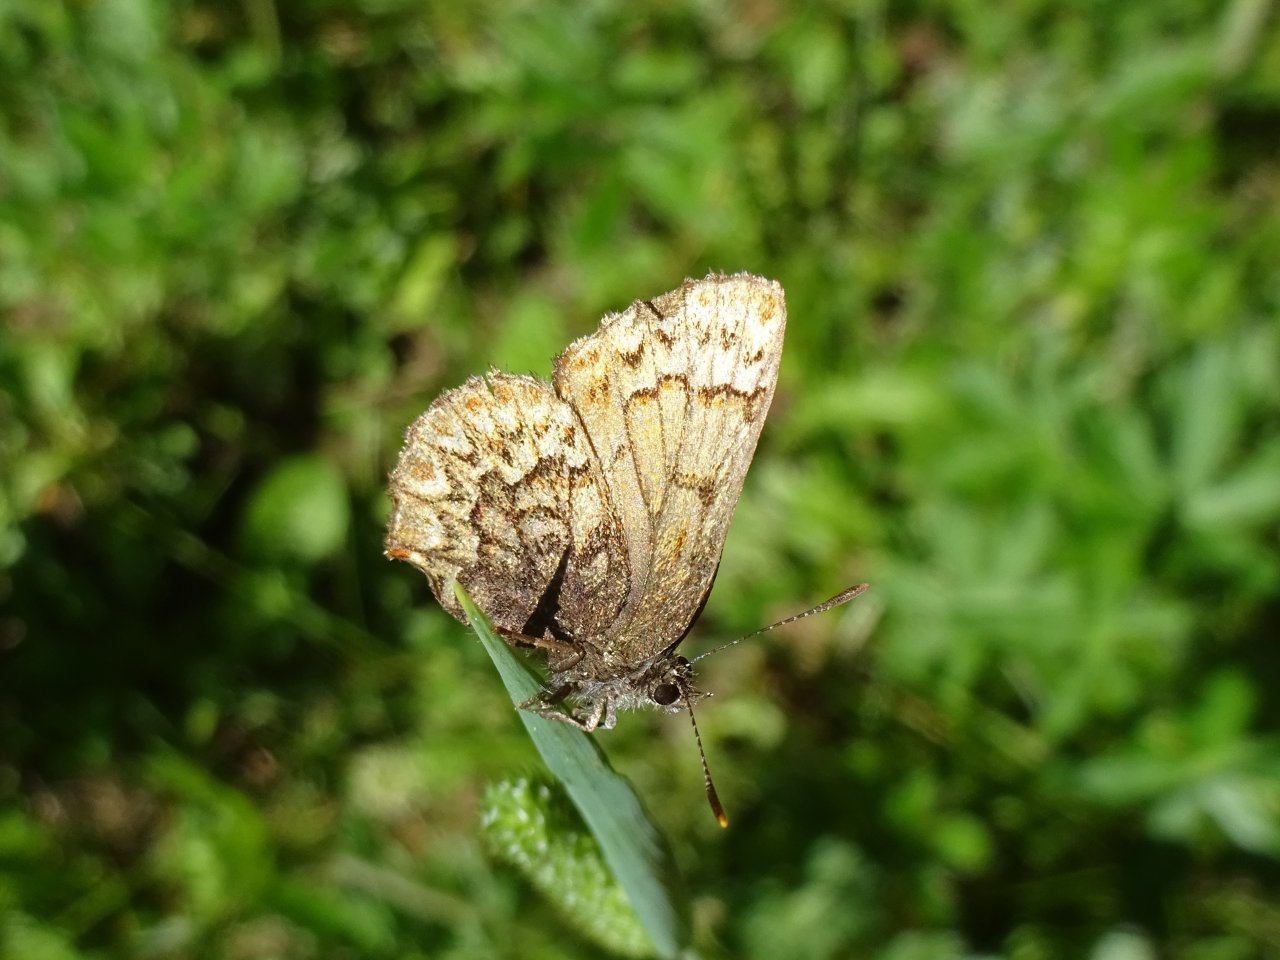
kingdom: Animalia
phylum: Arthropoda
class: Insecta
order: Lepidoptera
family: Lycaenidae
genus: Incisalia
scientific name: Incisalia eryphon
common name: Western Pine Elfin
